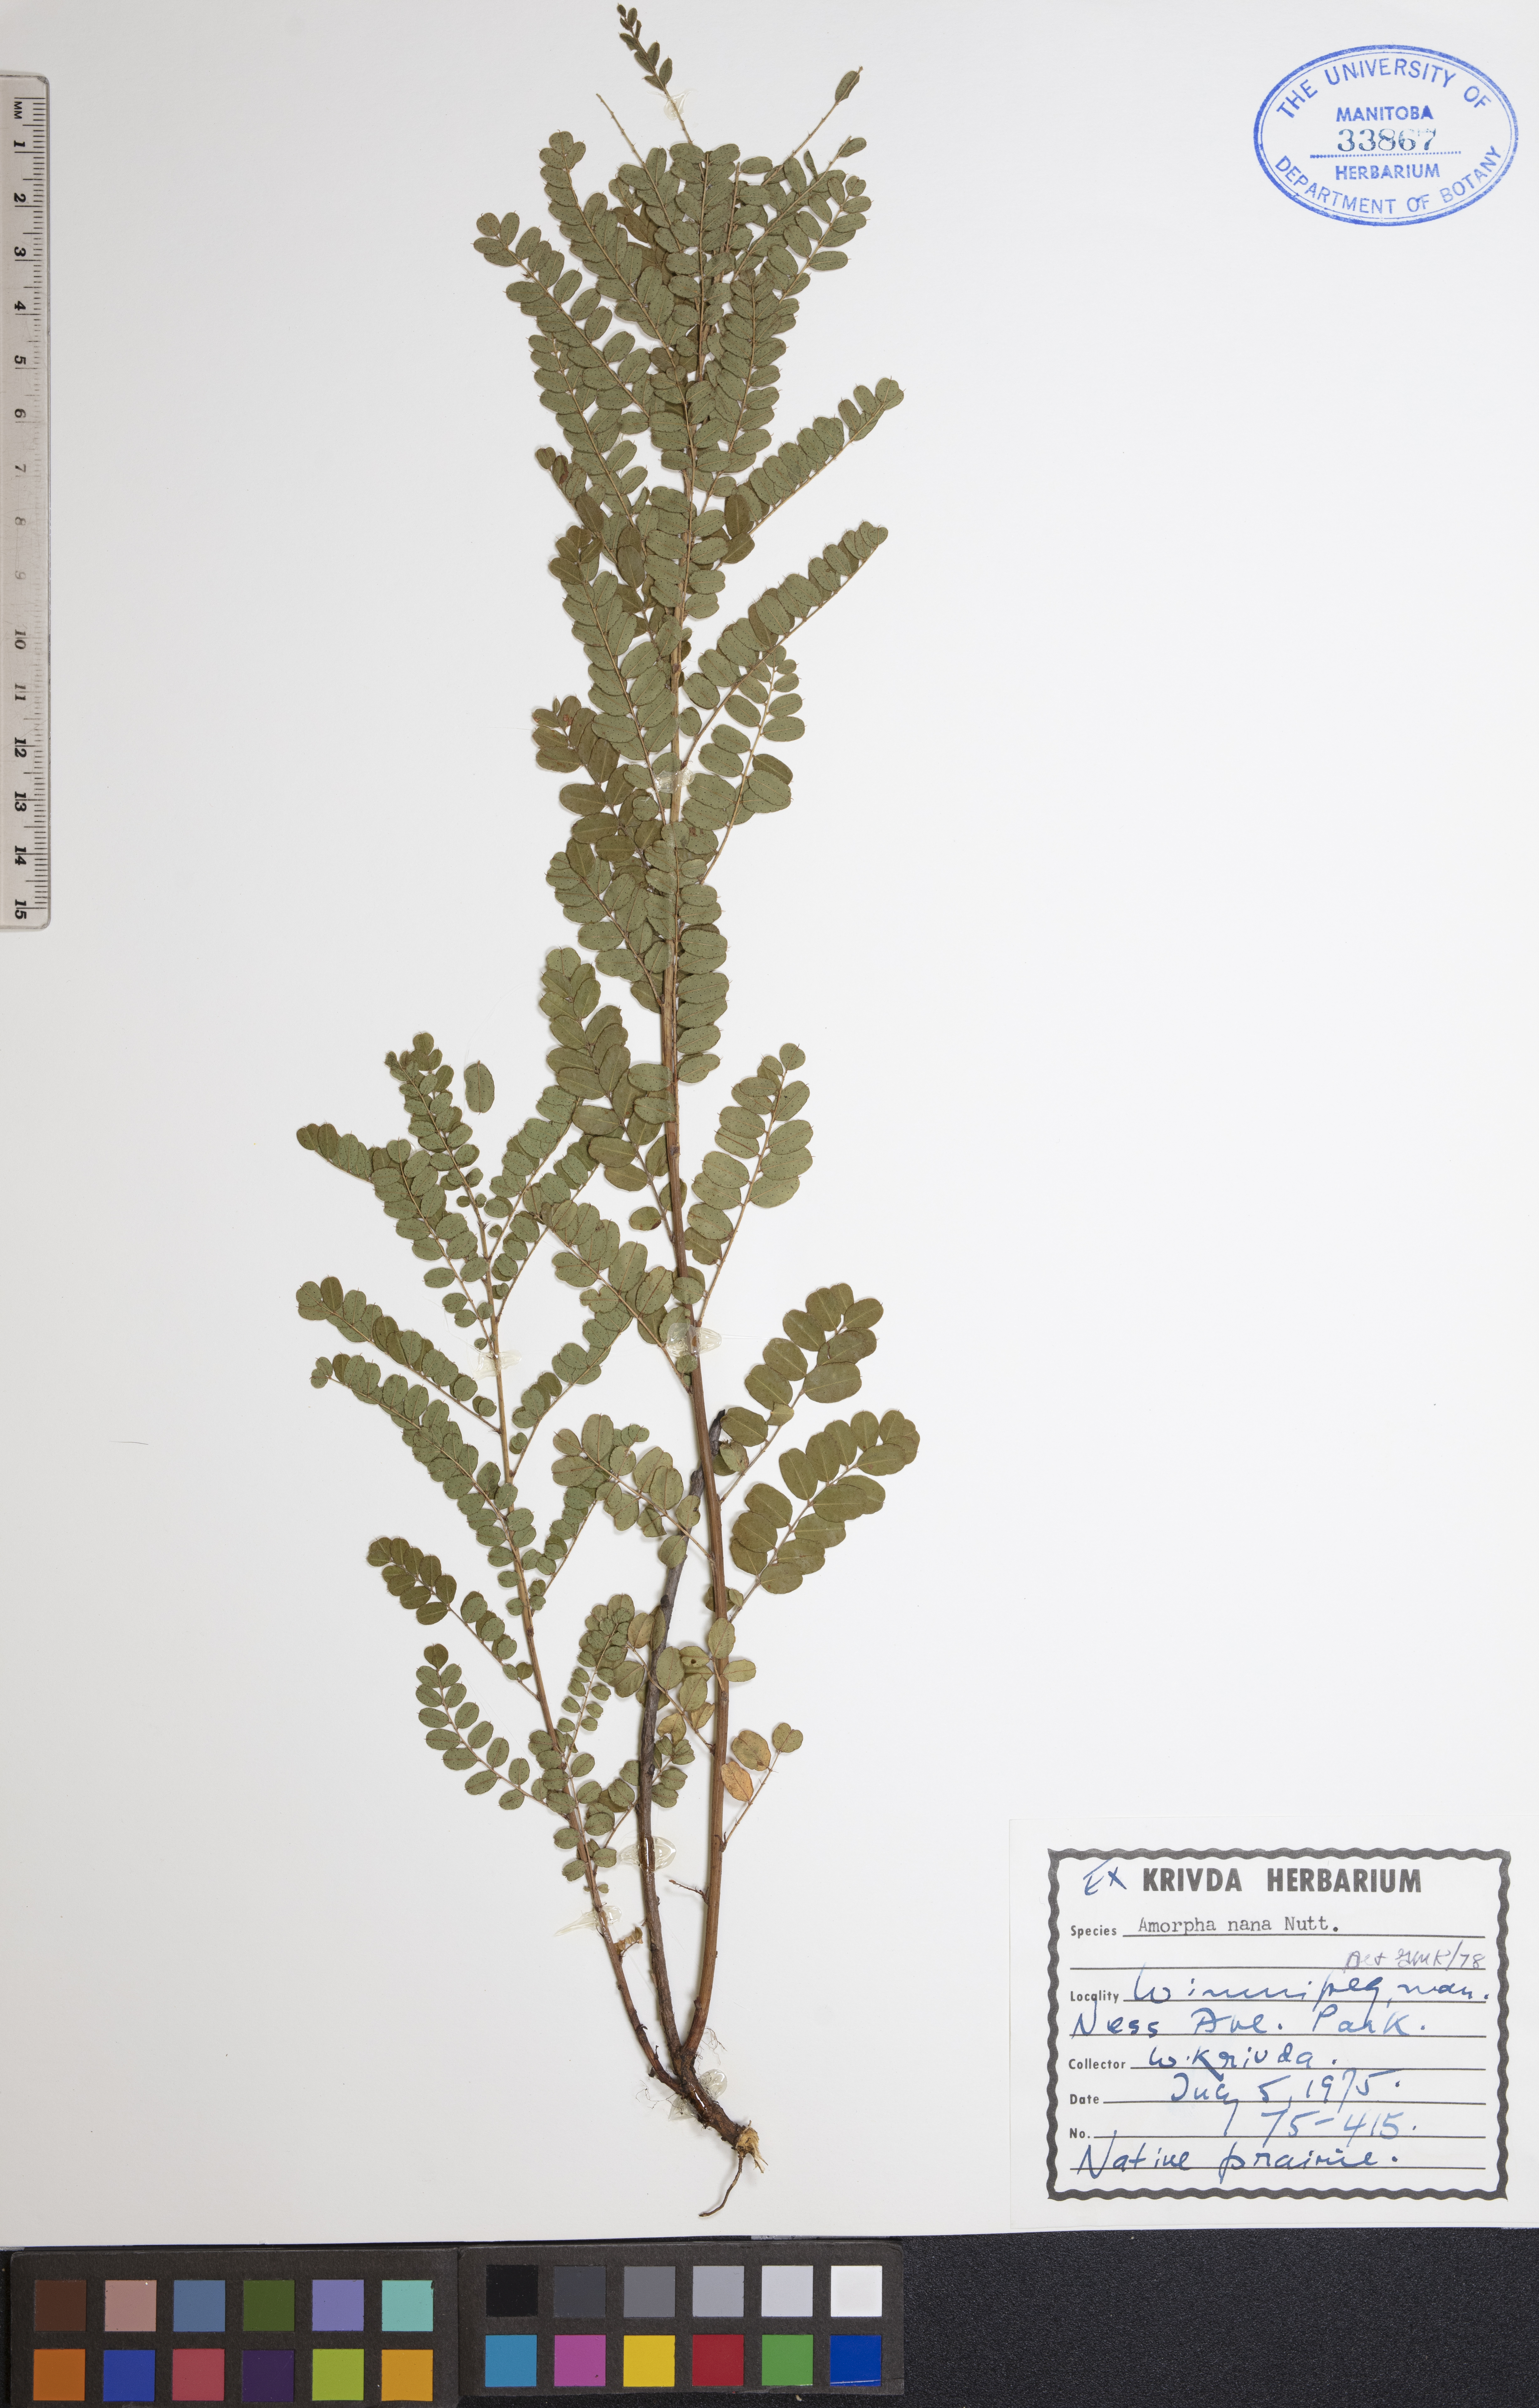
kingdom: Plantae
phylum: Tracheophyta
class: Magnoliopsida
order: Fabales
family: Fabaceae
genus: Amorpha
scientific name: Amorpha nana
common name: Fragrant false indigo
